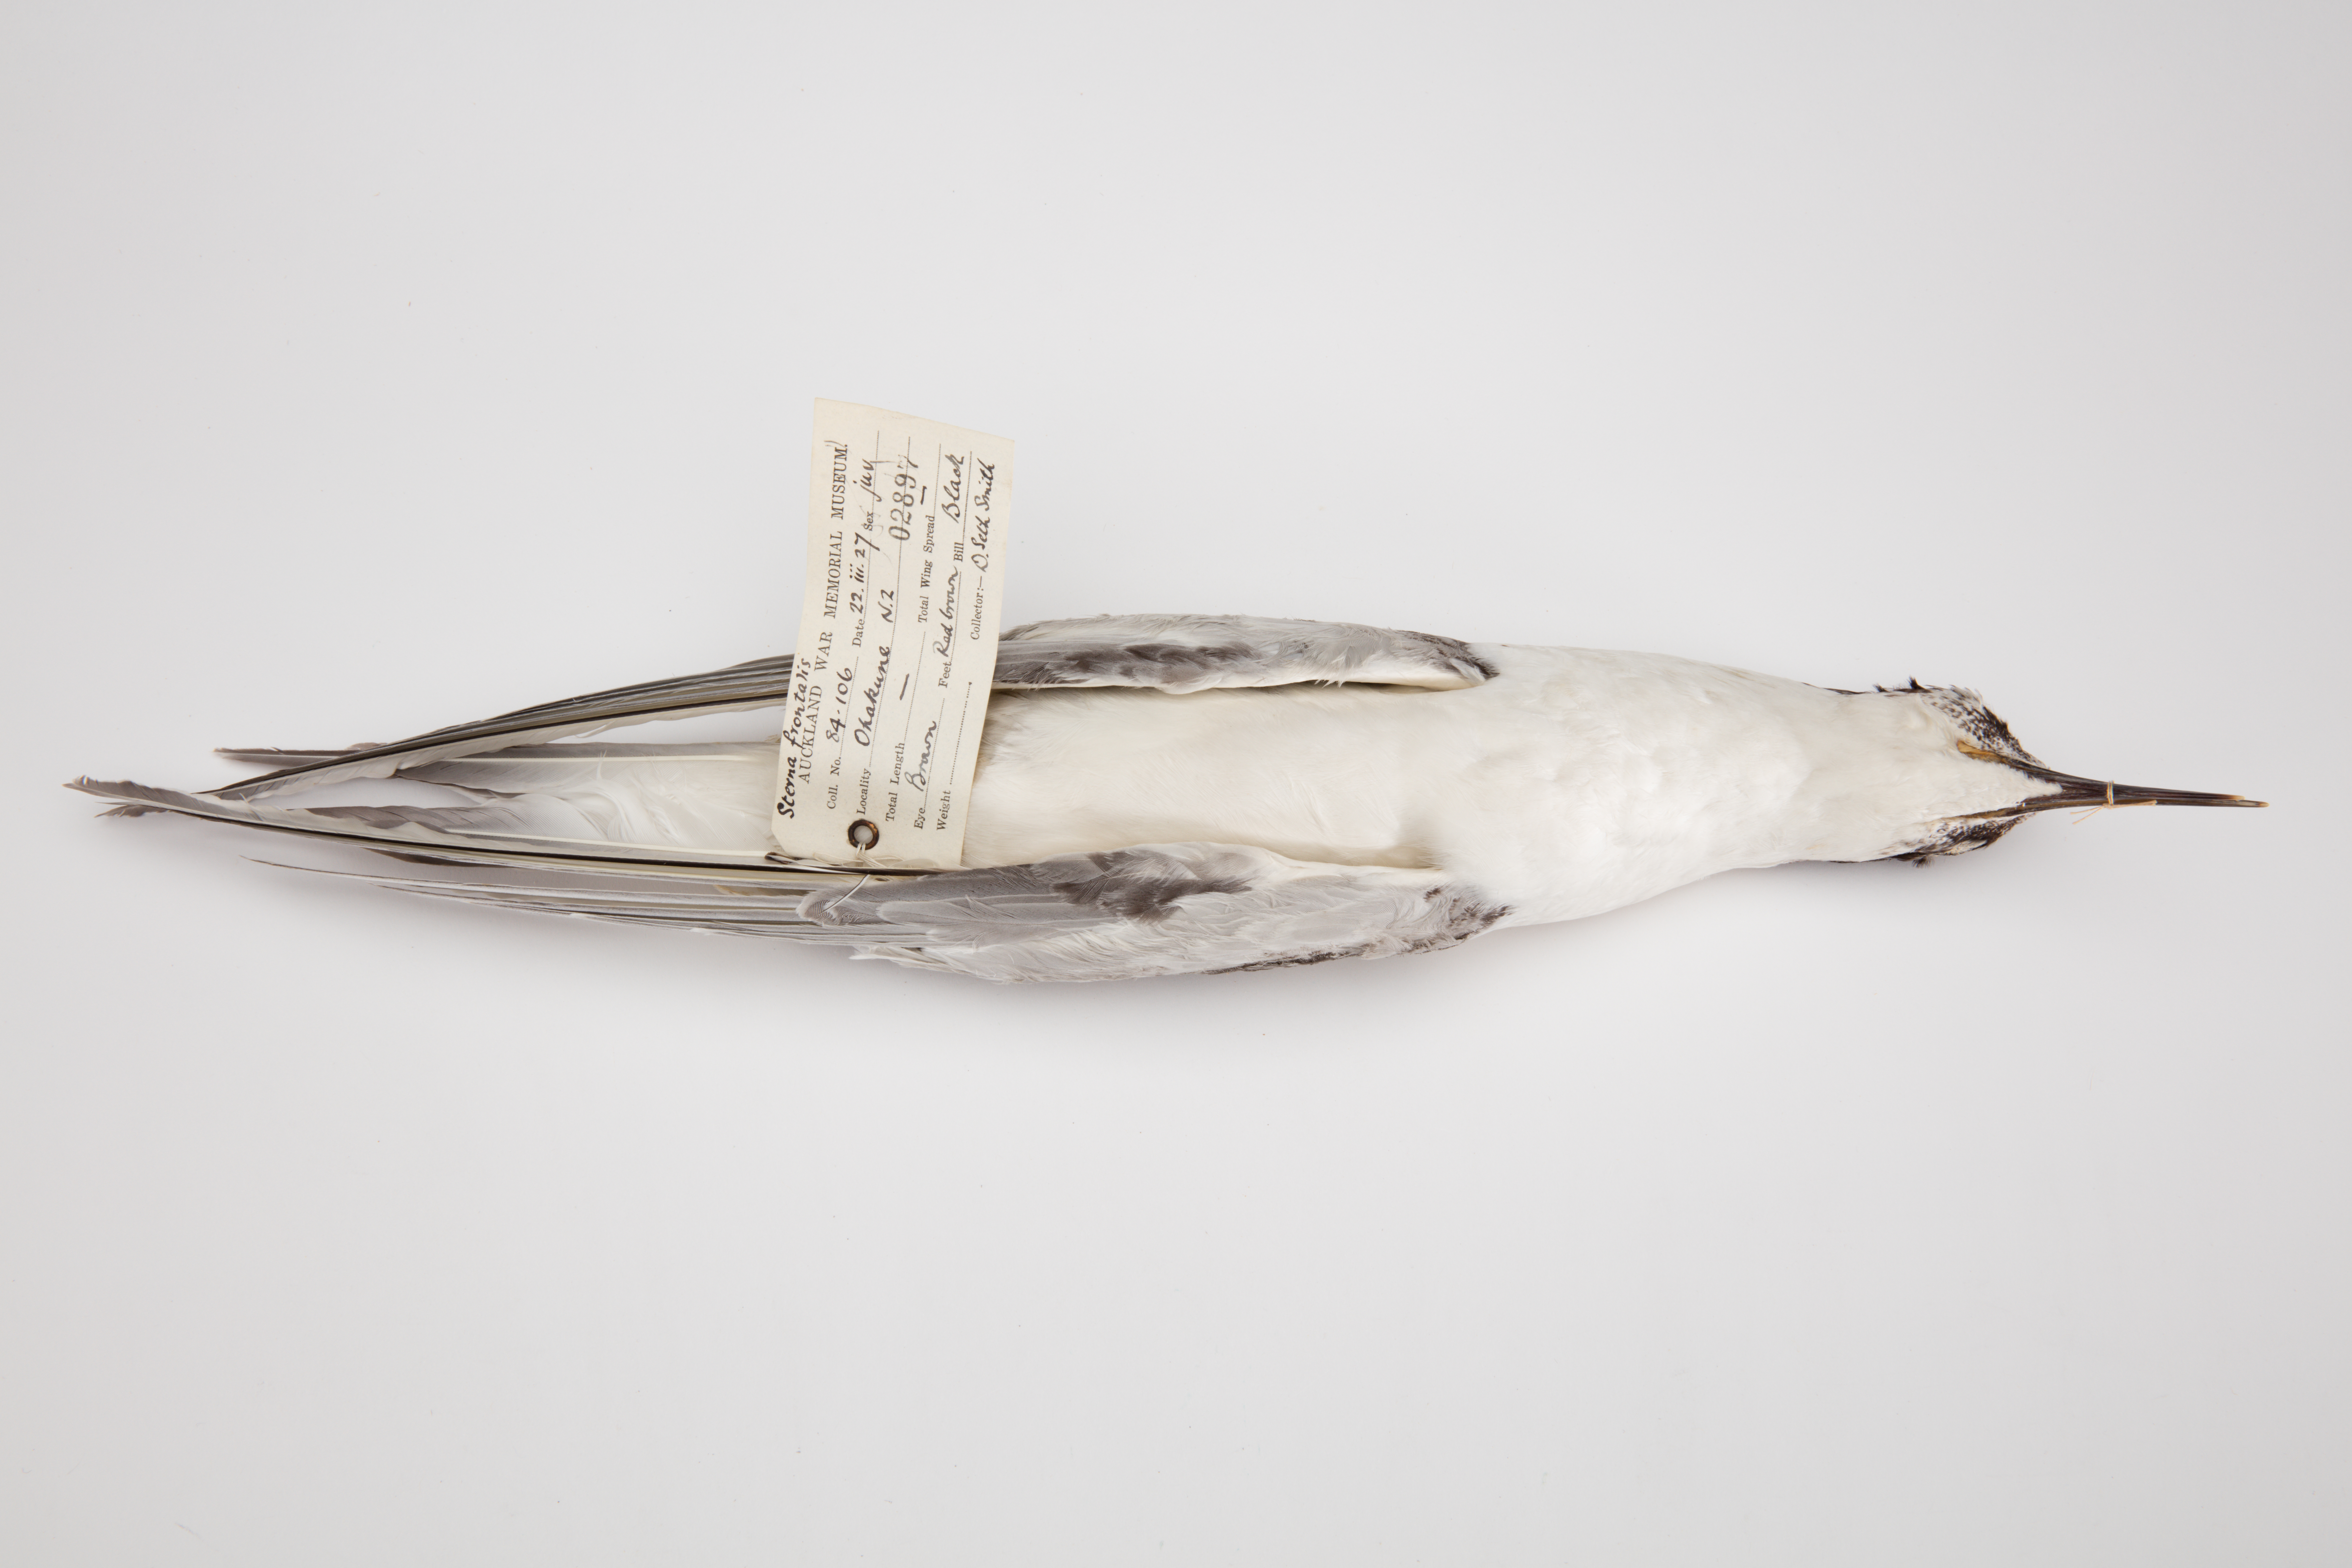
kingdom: Animalia
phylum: Chordata
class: Aves
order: Charadriiformes
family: Laridae
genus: Sterna
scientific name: Sterna striata
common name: White-fronted tern
